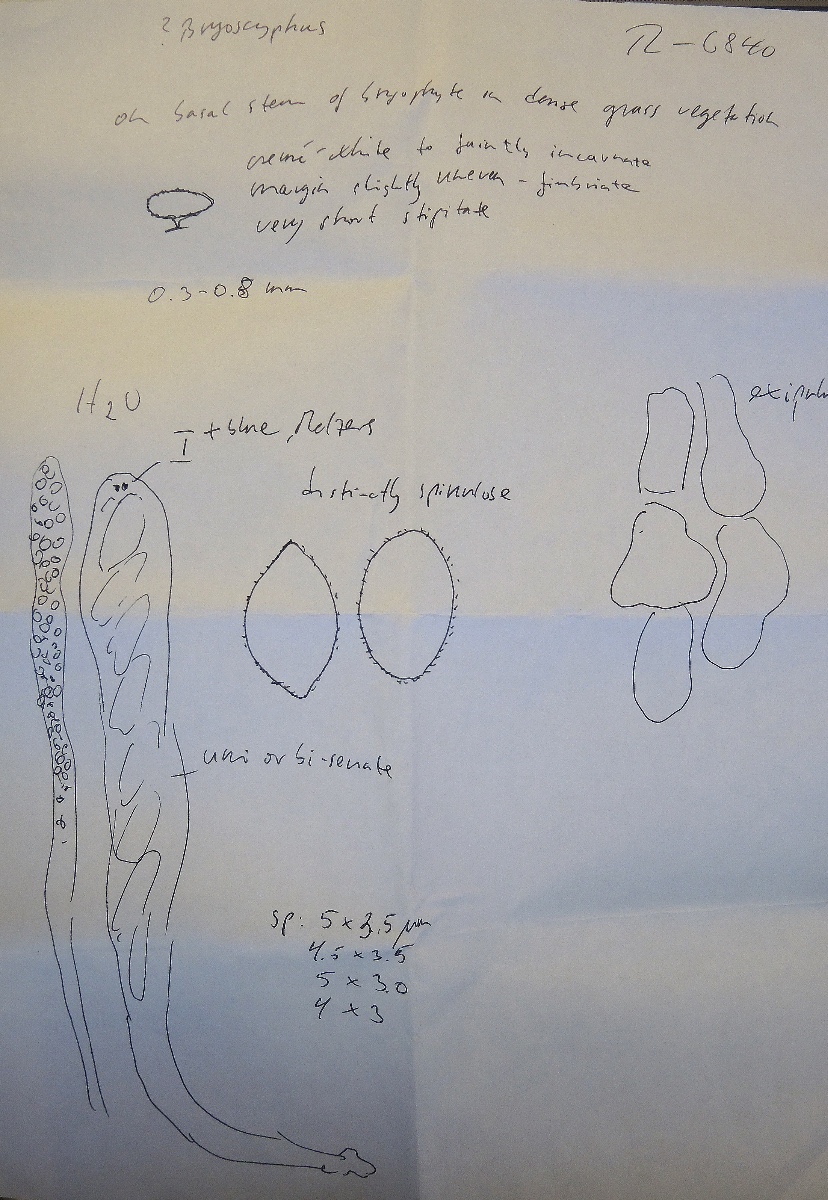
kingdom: Fungi
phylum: Ascomycota
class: Leotiomycetes
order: Helotiales
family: Helotiaceae
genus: Bryoscyphus
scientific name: Bryoscyphus
